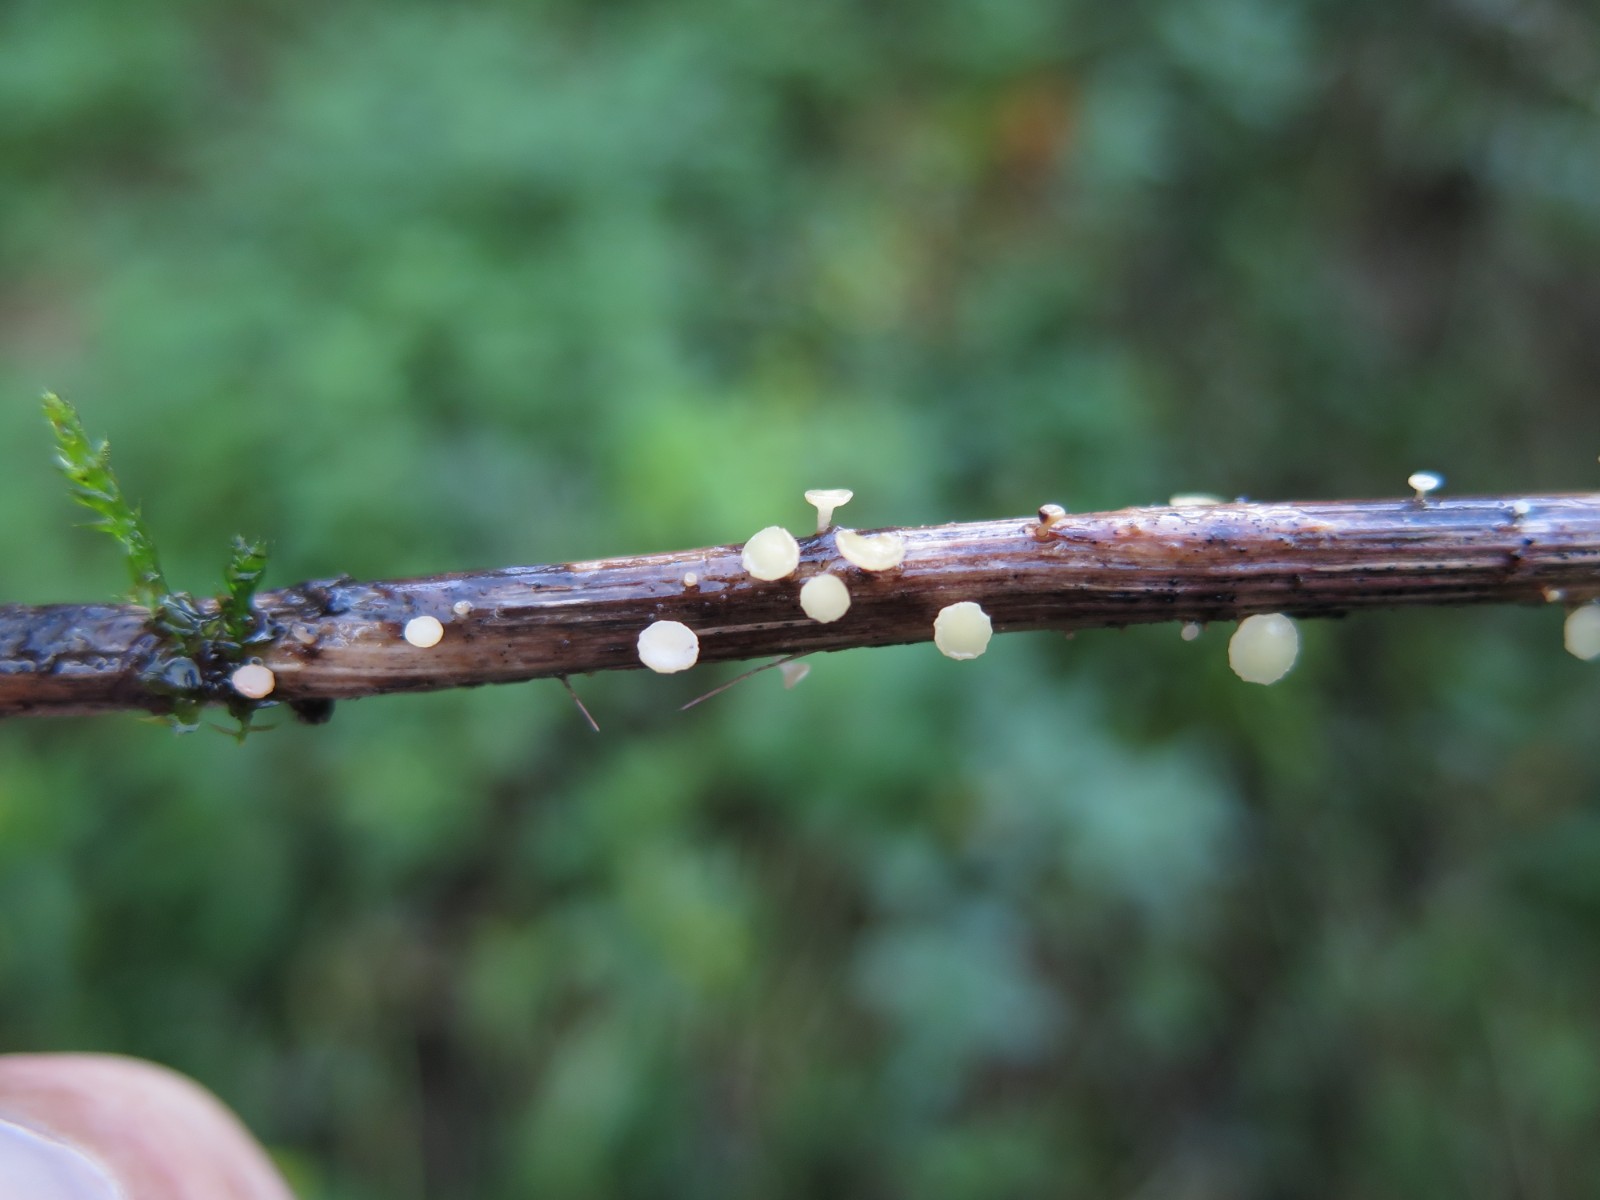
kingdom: Fungi
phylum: Ascomycota
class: Leotiomycetes
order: Helotiales
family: Helotiaceae
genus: Cyathicula
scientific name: Cyathicula cyathoidea
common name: pokal-stilkskive
